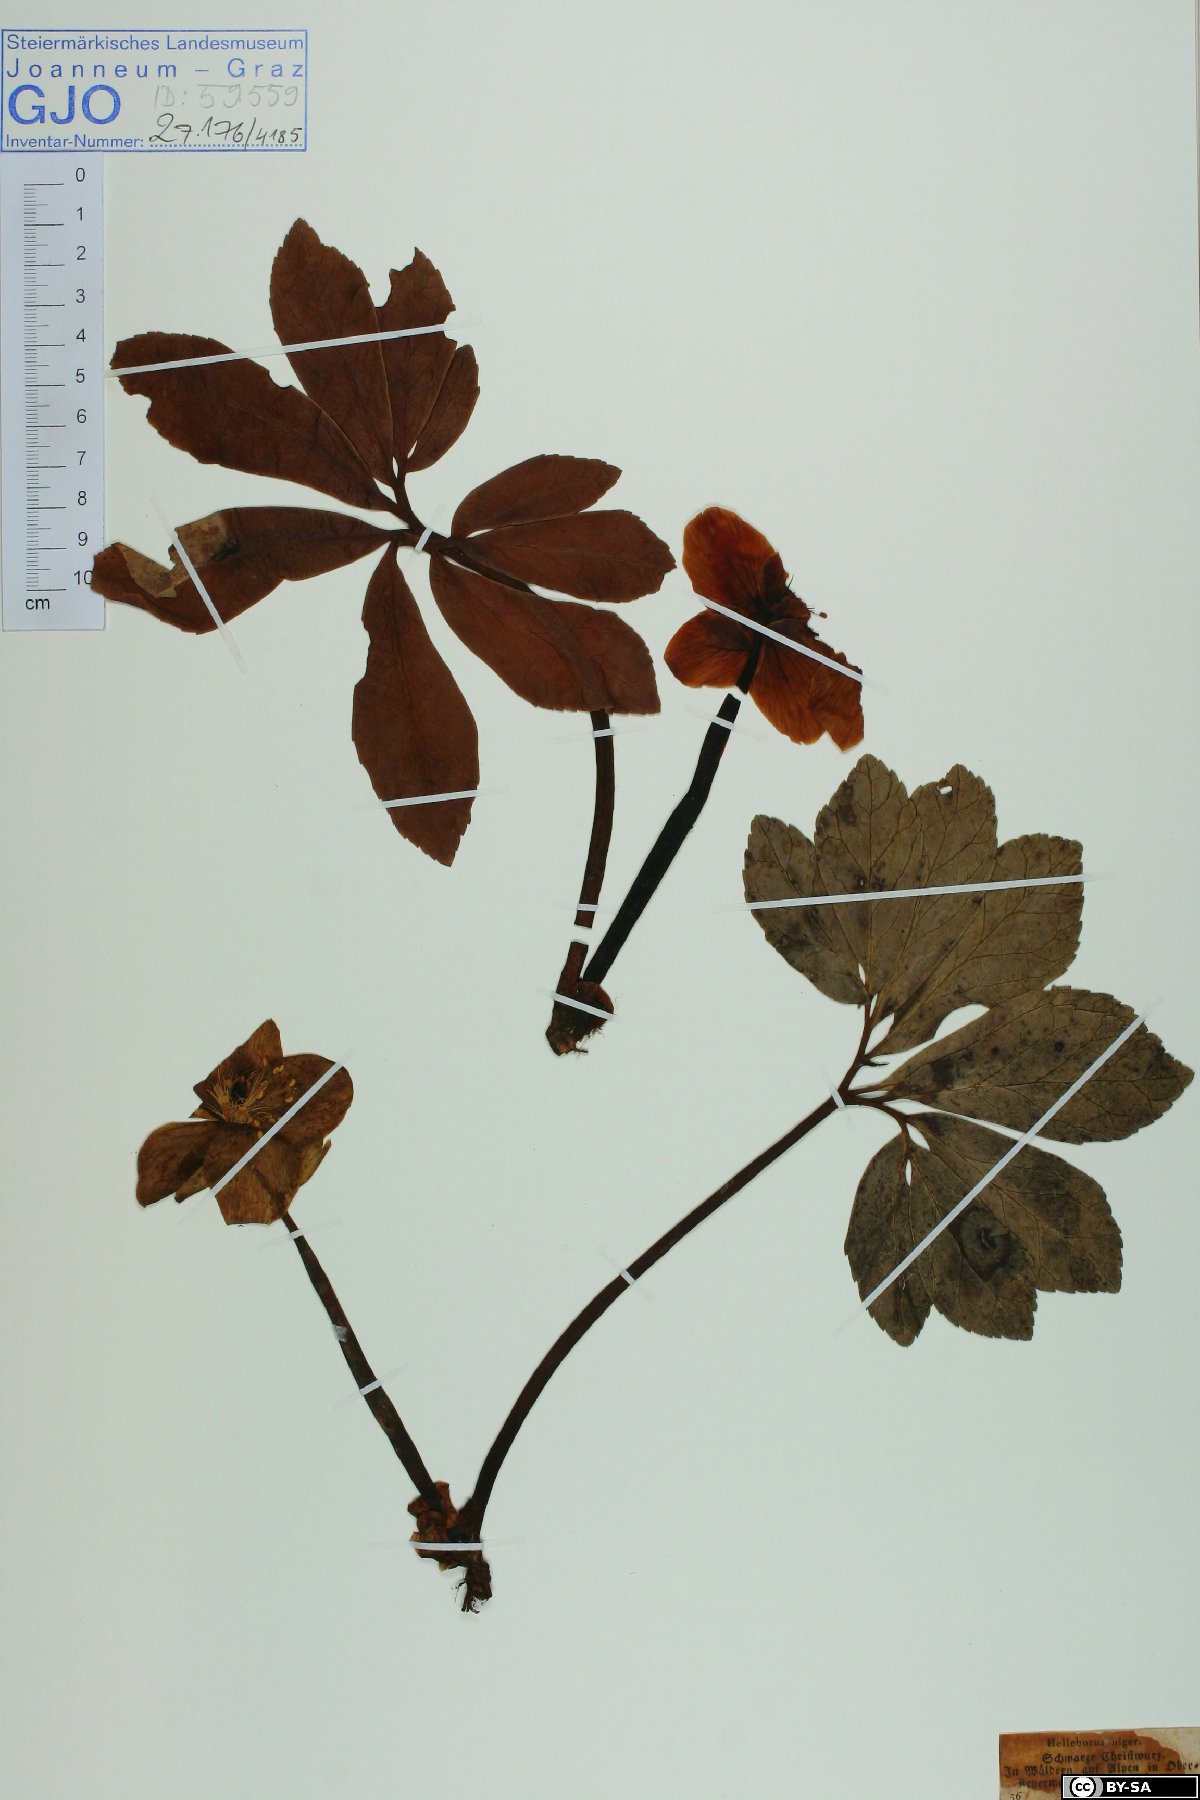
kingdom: Plantae
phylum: Tracheophyta
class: Magnoliopsida
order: Ranunculales
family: Ranunculaceae
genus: Helleborus
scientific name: Helleborus niger
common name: Black hellebore
